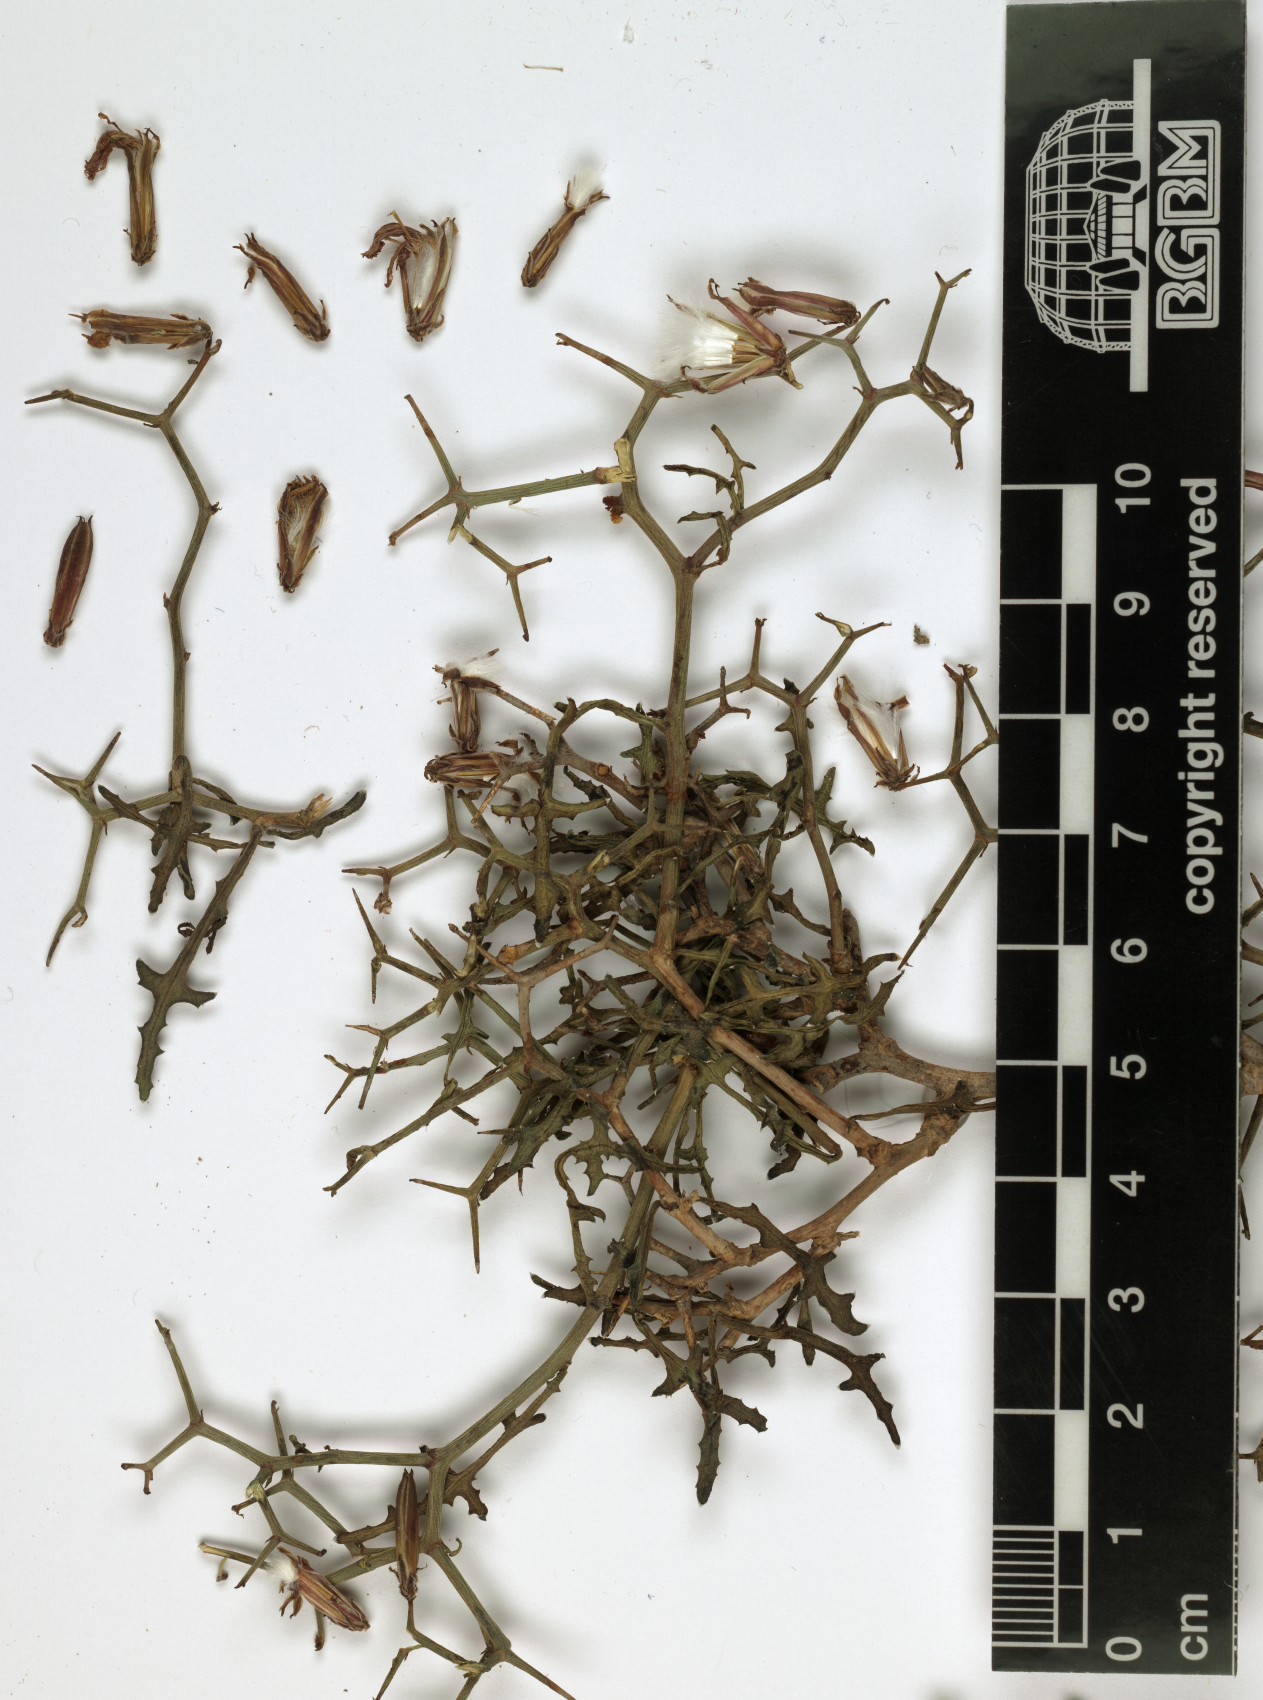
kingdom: Plantae
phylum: Tracheophyta
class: Magnoliopsida
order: Asterales
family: Asteraceae
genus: Launaea
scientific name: Launaea bornmuelleri
